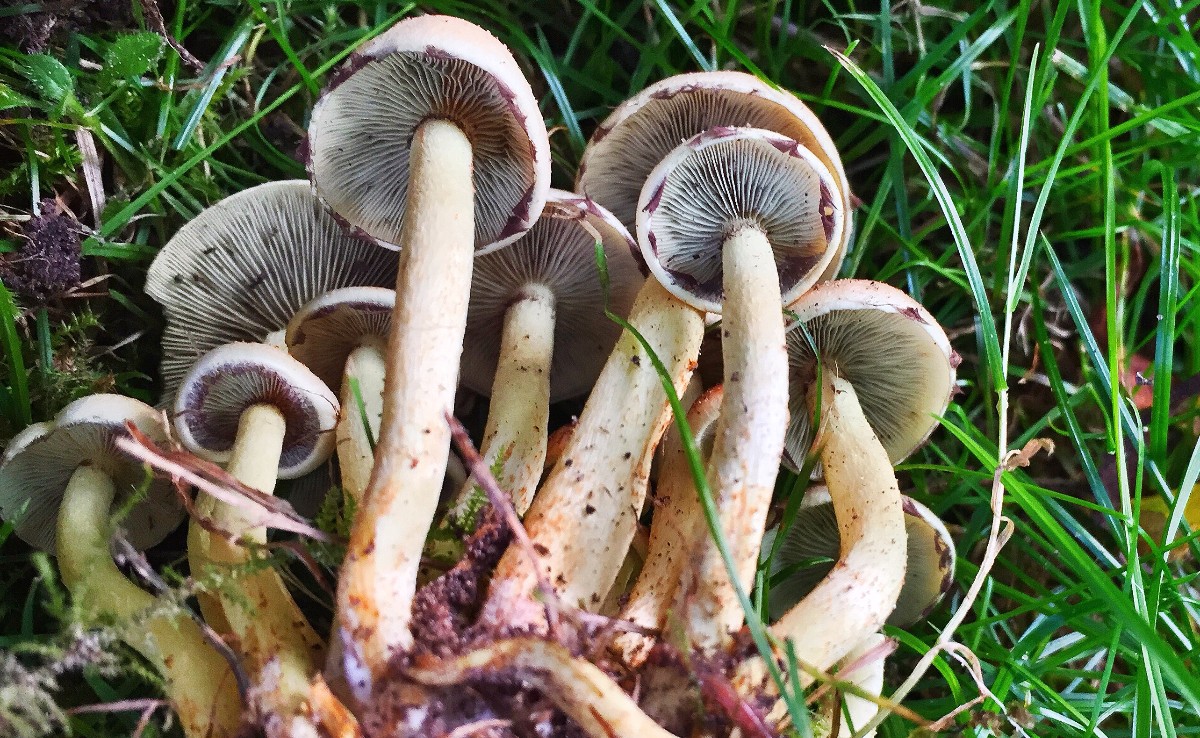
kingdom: Fungi
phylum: Basidiomycota
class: Agaricomycetes
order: Agaricales
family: Strophariaceae
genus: Hypholoma
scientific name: Hypholoma fasciculare
